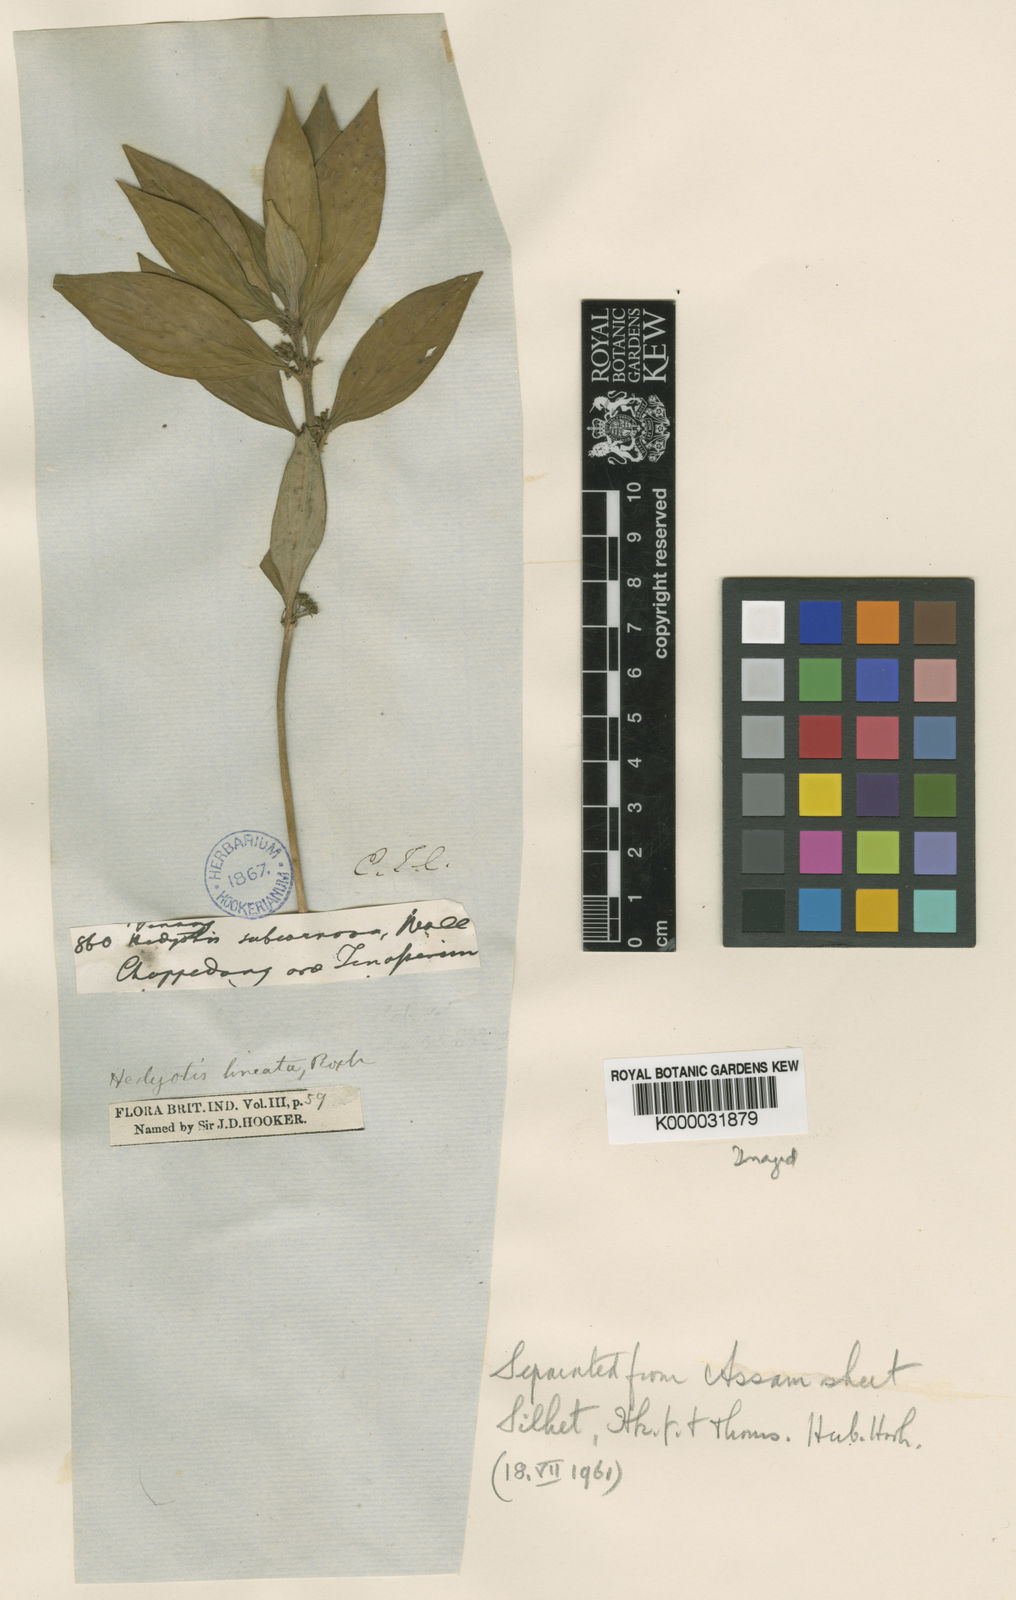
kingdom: Plantae
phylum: Tracheophyta
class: Magnoliopsida
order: Gentianales
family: Rubiaceae
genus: Exallage
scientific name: Exallage cristata
